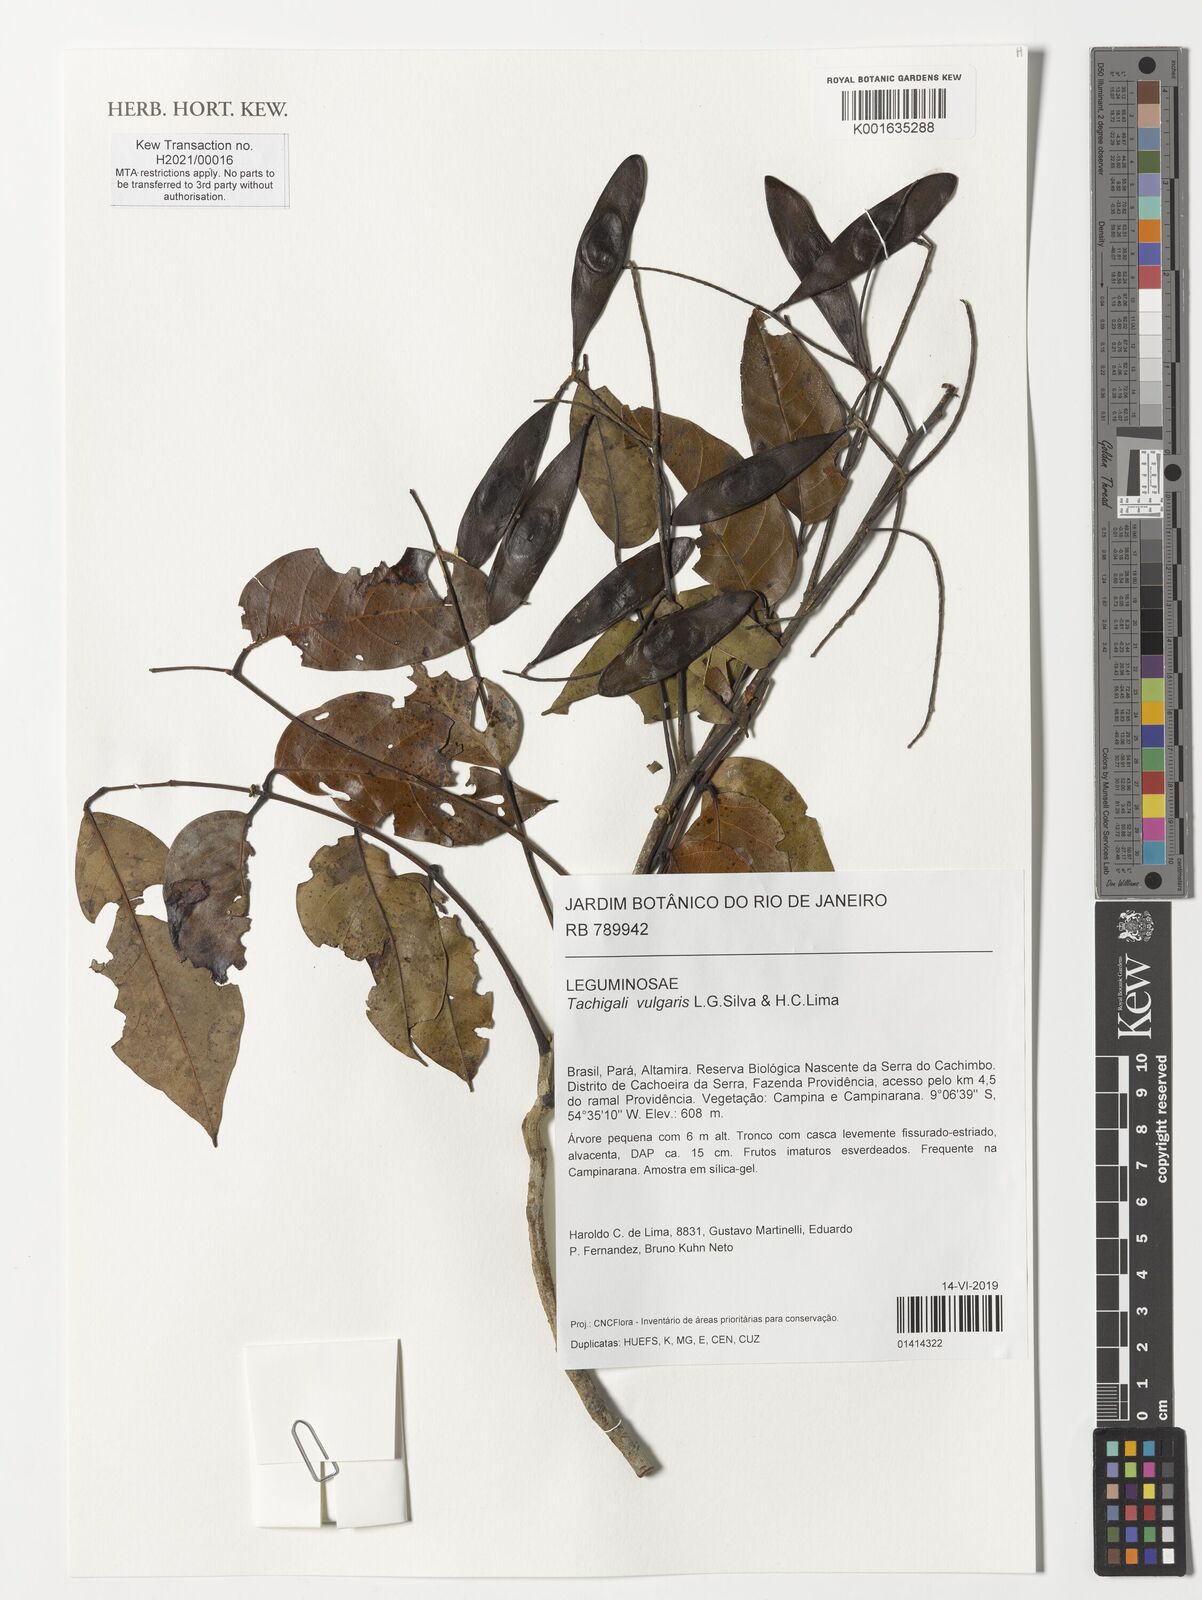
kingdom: Plantae
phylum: Tracheophyta
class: Magnoliopsida
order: Fabales
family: Fabaceae
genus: Tachigali
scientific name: Tachigali vulgaris
